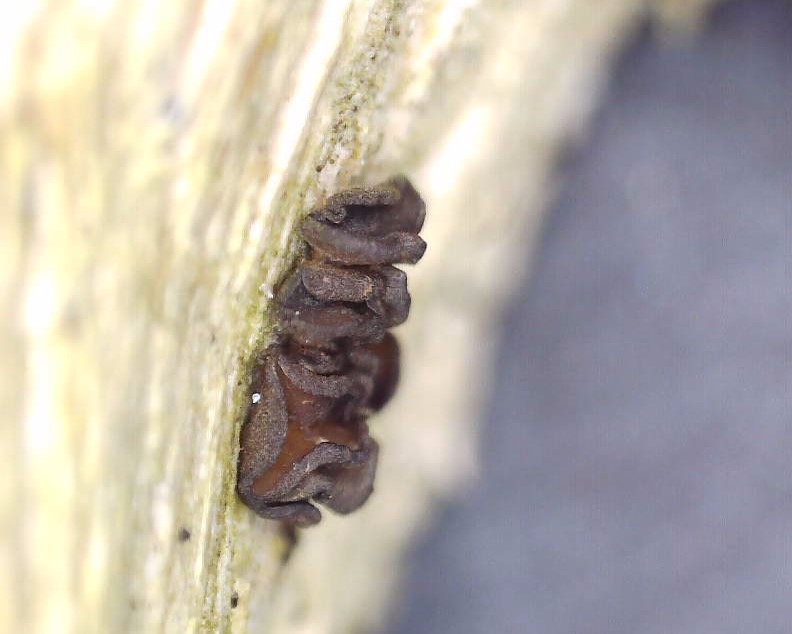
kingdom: Fungi
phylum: Ascomycota
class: Leotiomycetes
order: Helotiales
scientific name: Helotiales
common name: stilkskiveordenen
